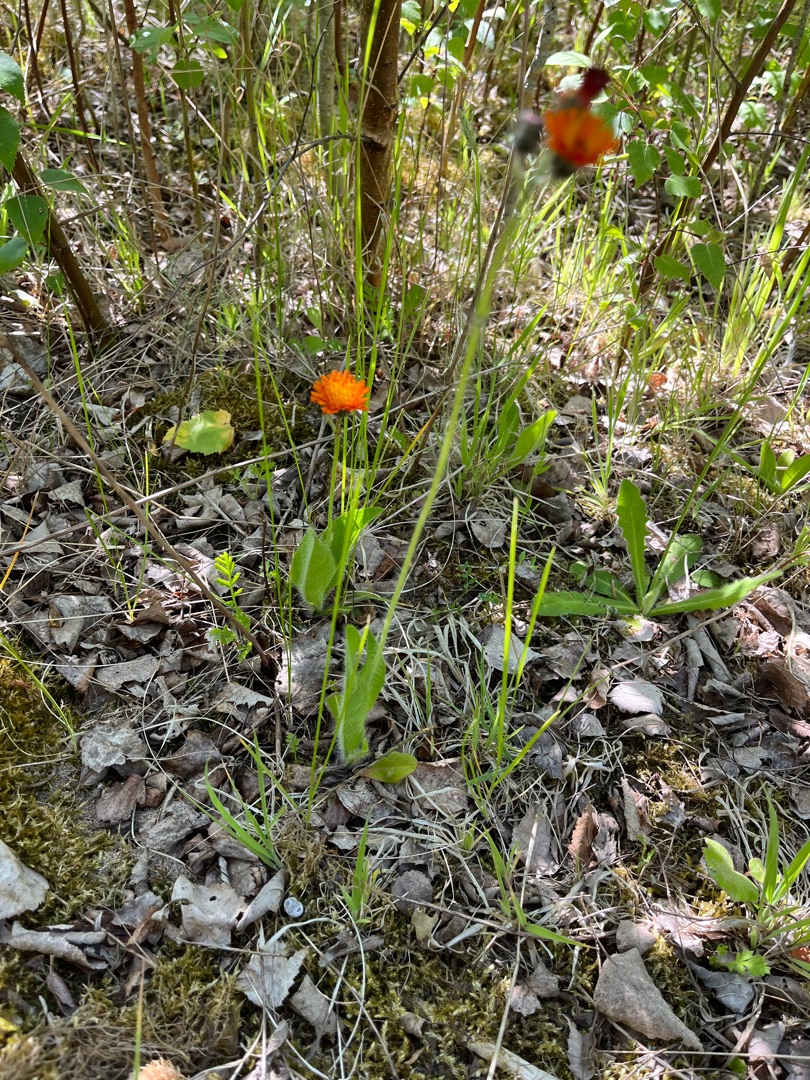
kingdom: Plantae
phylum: Tracheophyta
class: Magnoliopsida
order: Asterales
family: Asteraceae
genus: Pilosella
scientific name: Pilosella aurantiaca
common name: Pomerans-høgeurt
